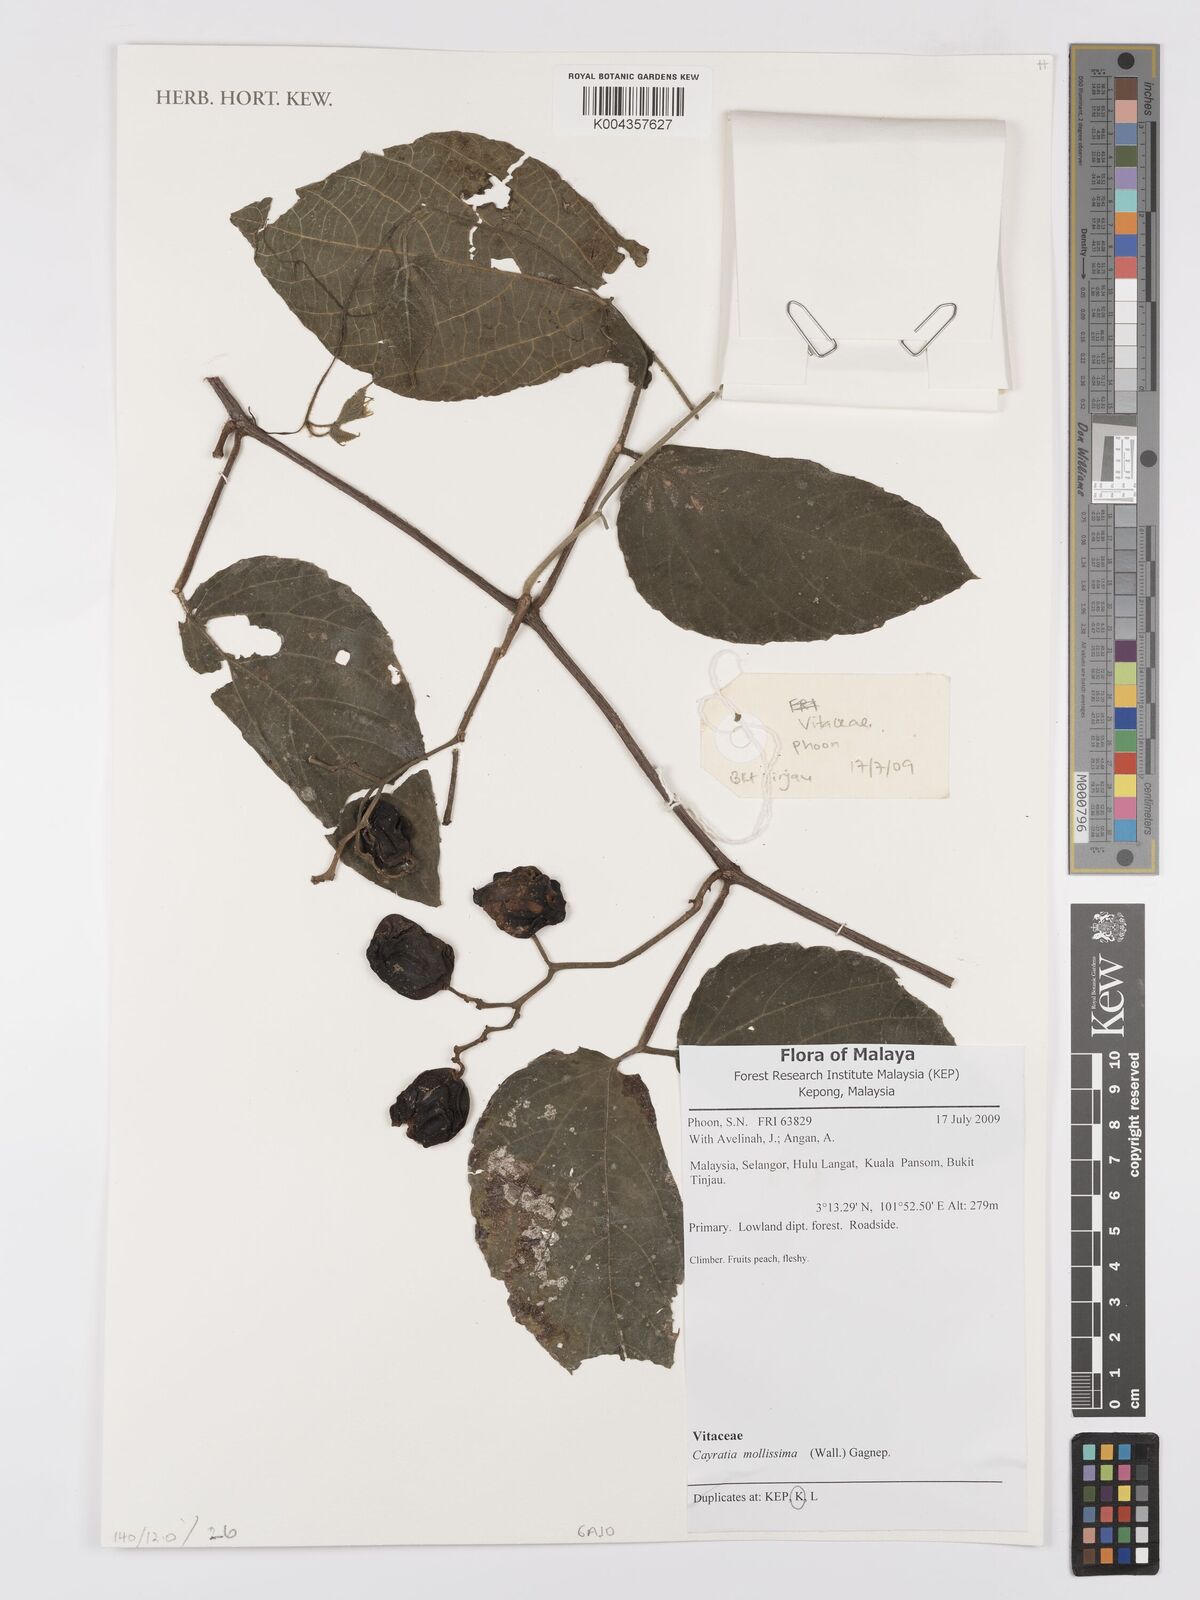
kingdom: Plantae
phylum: Tracheophyta
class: Magnoliopsida
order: Vitales
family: Vitaceae
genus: Cayratia
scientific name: Cayratia mollissima
